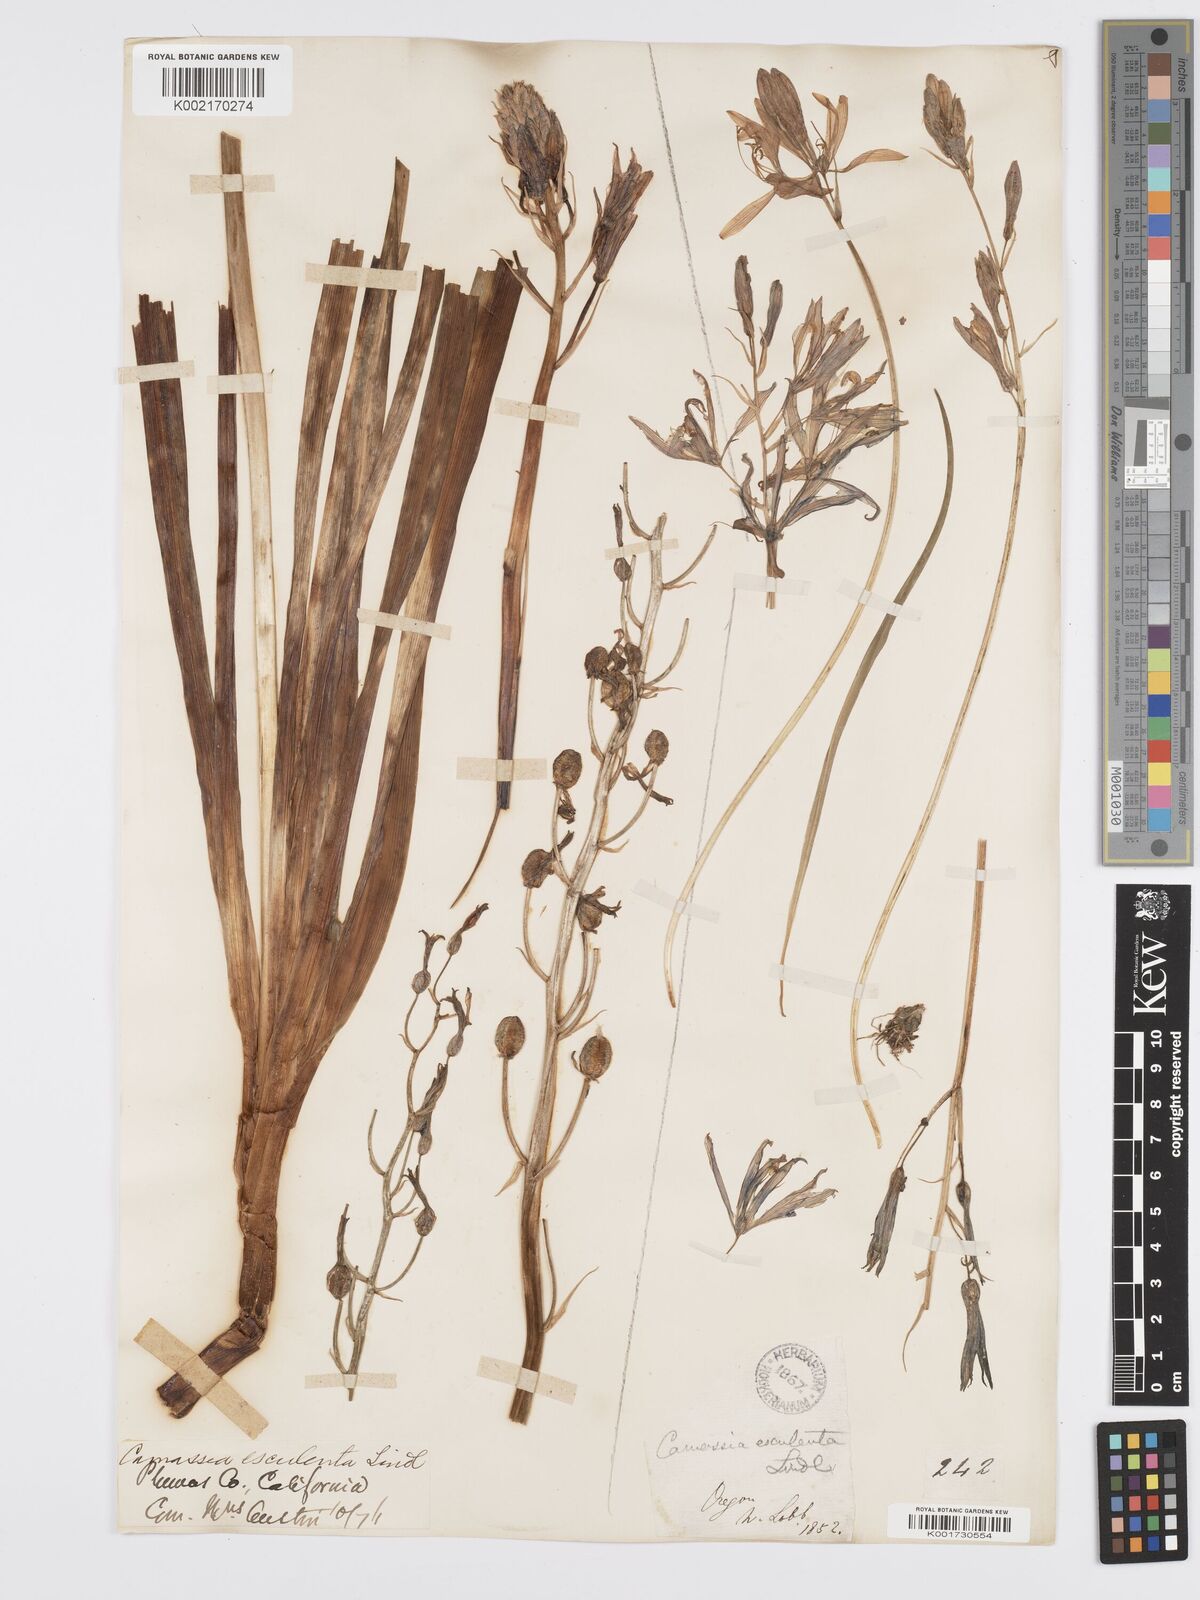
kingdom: Plantae
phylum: Tracheophyta
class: Liliopsida
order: Asparagales
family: Asparagaceae
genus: Camassia
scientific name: Camassia leichtlinii
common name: Leichtlin's camas
